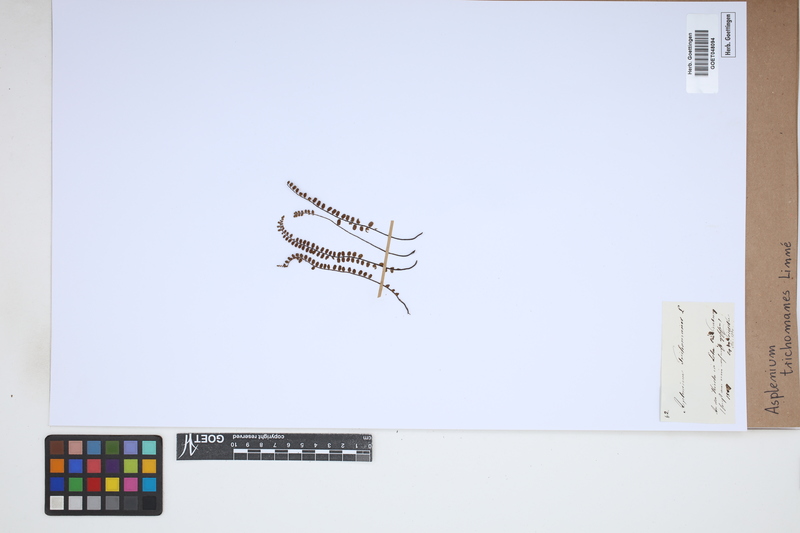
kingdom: Plantae
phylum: Tracheophyta
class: Polypodiopsida
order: Polypodiales
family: Aspleniaceae
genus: Asplenium
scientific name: Asplenium trichomanes
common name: Maidenhair spleenwort
